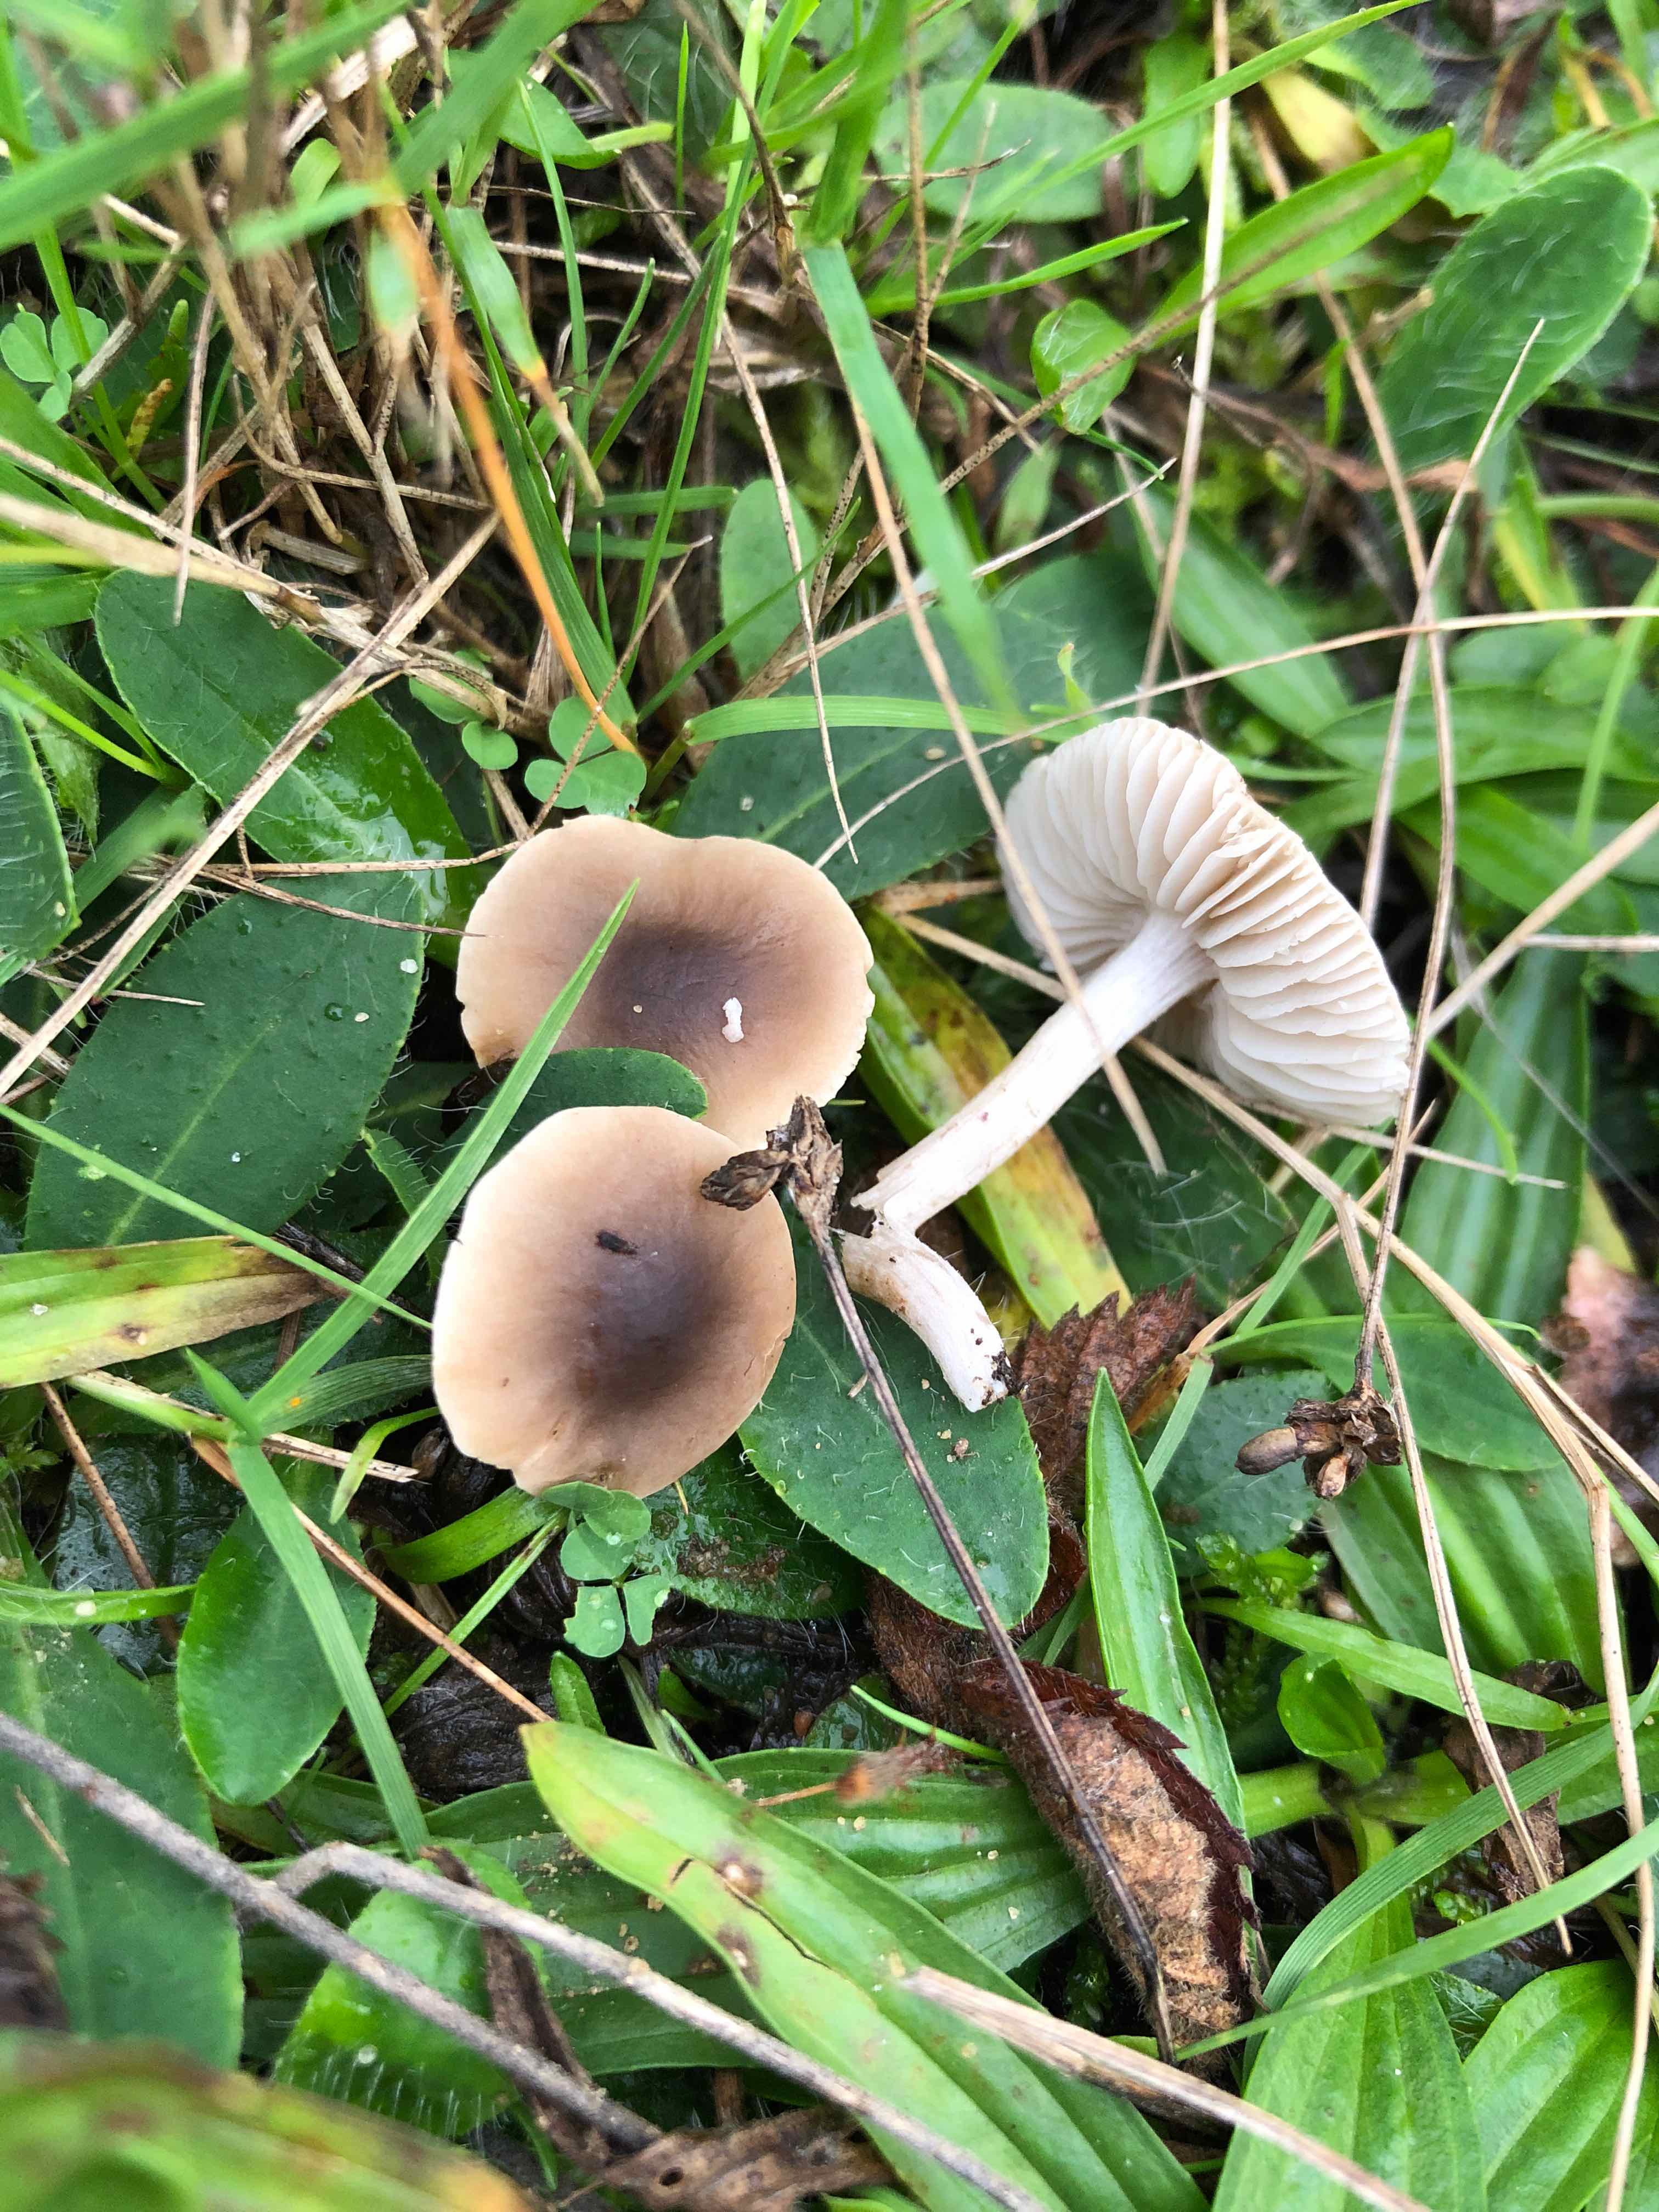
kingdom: Fungi
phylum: Basidiomycota
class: Agaricomycetes
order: Agaricales
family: Tricholomataceae
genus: Dermoloma
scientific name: Dermoloma cuneifolium
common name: eng-nonnehat
